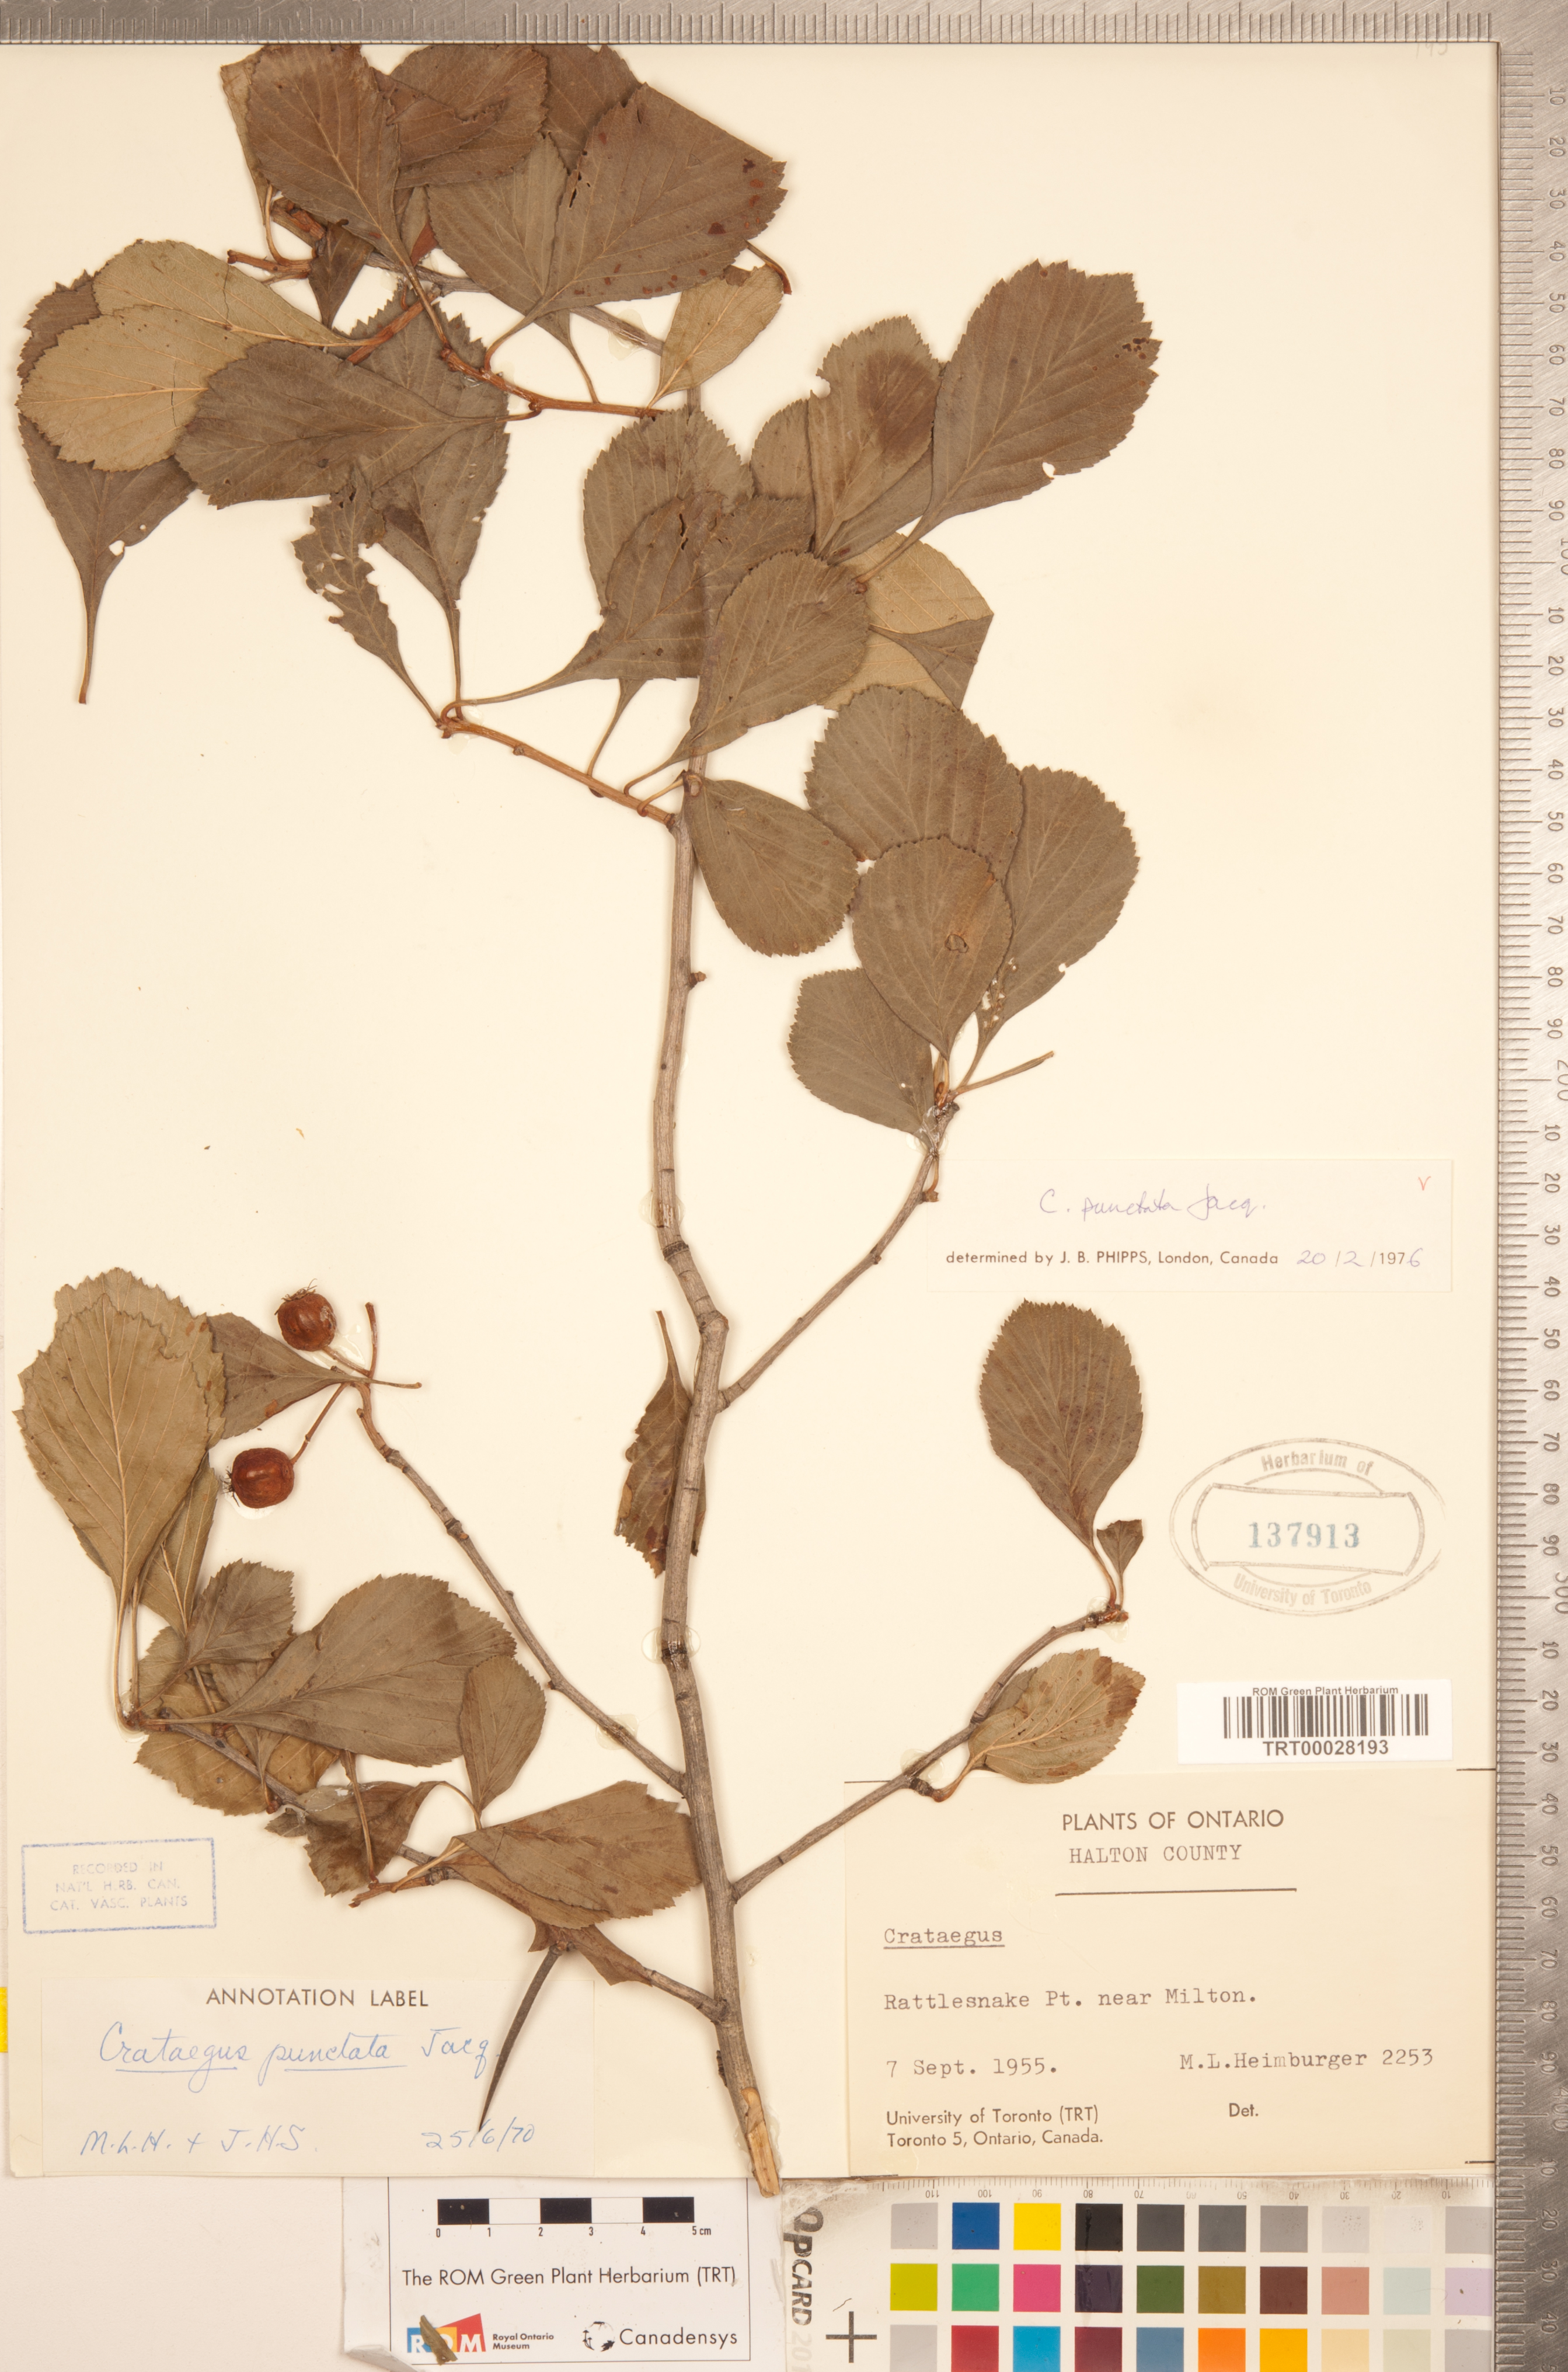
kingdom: Plantae
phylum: Tracheophyta
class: Magnoliopsida
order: Rosales
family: Rosaceae
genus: Crataegus
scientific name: Crataegus punctata
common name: Dotted hawthorn
